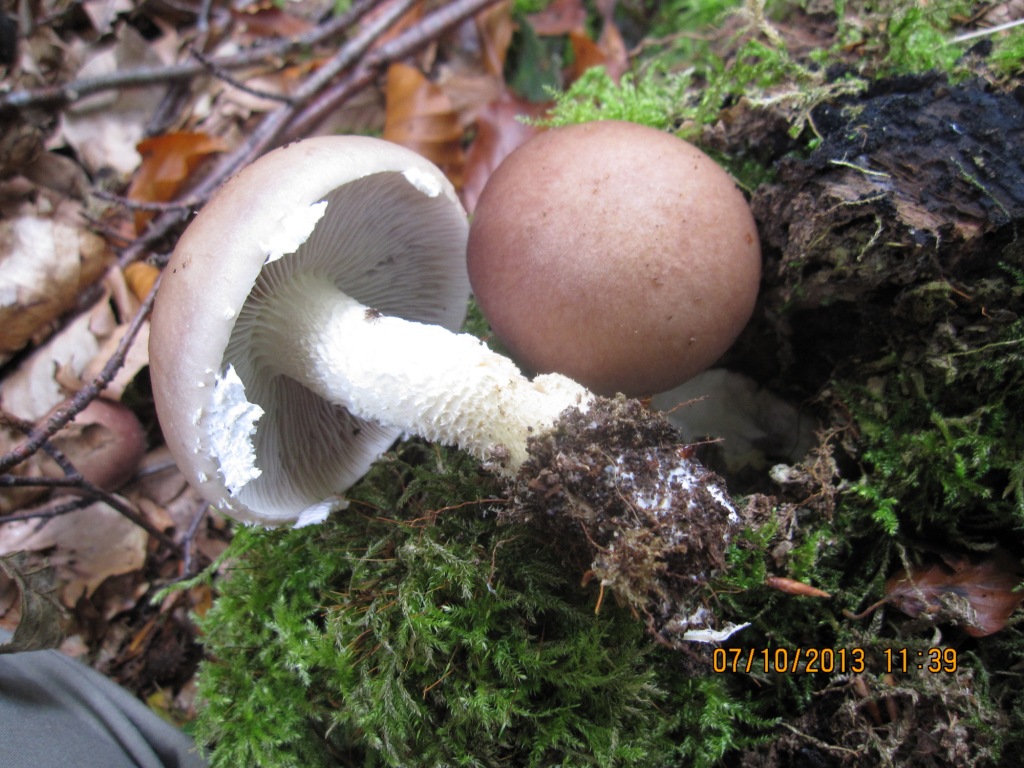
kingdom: Fungi
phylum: Basidiomycota
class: Agaricomycetes
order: Agaricales
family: Strophariaceae
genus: Stropharia
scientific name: Stropharia hornemannii
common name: nordisk bredblad
